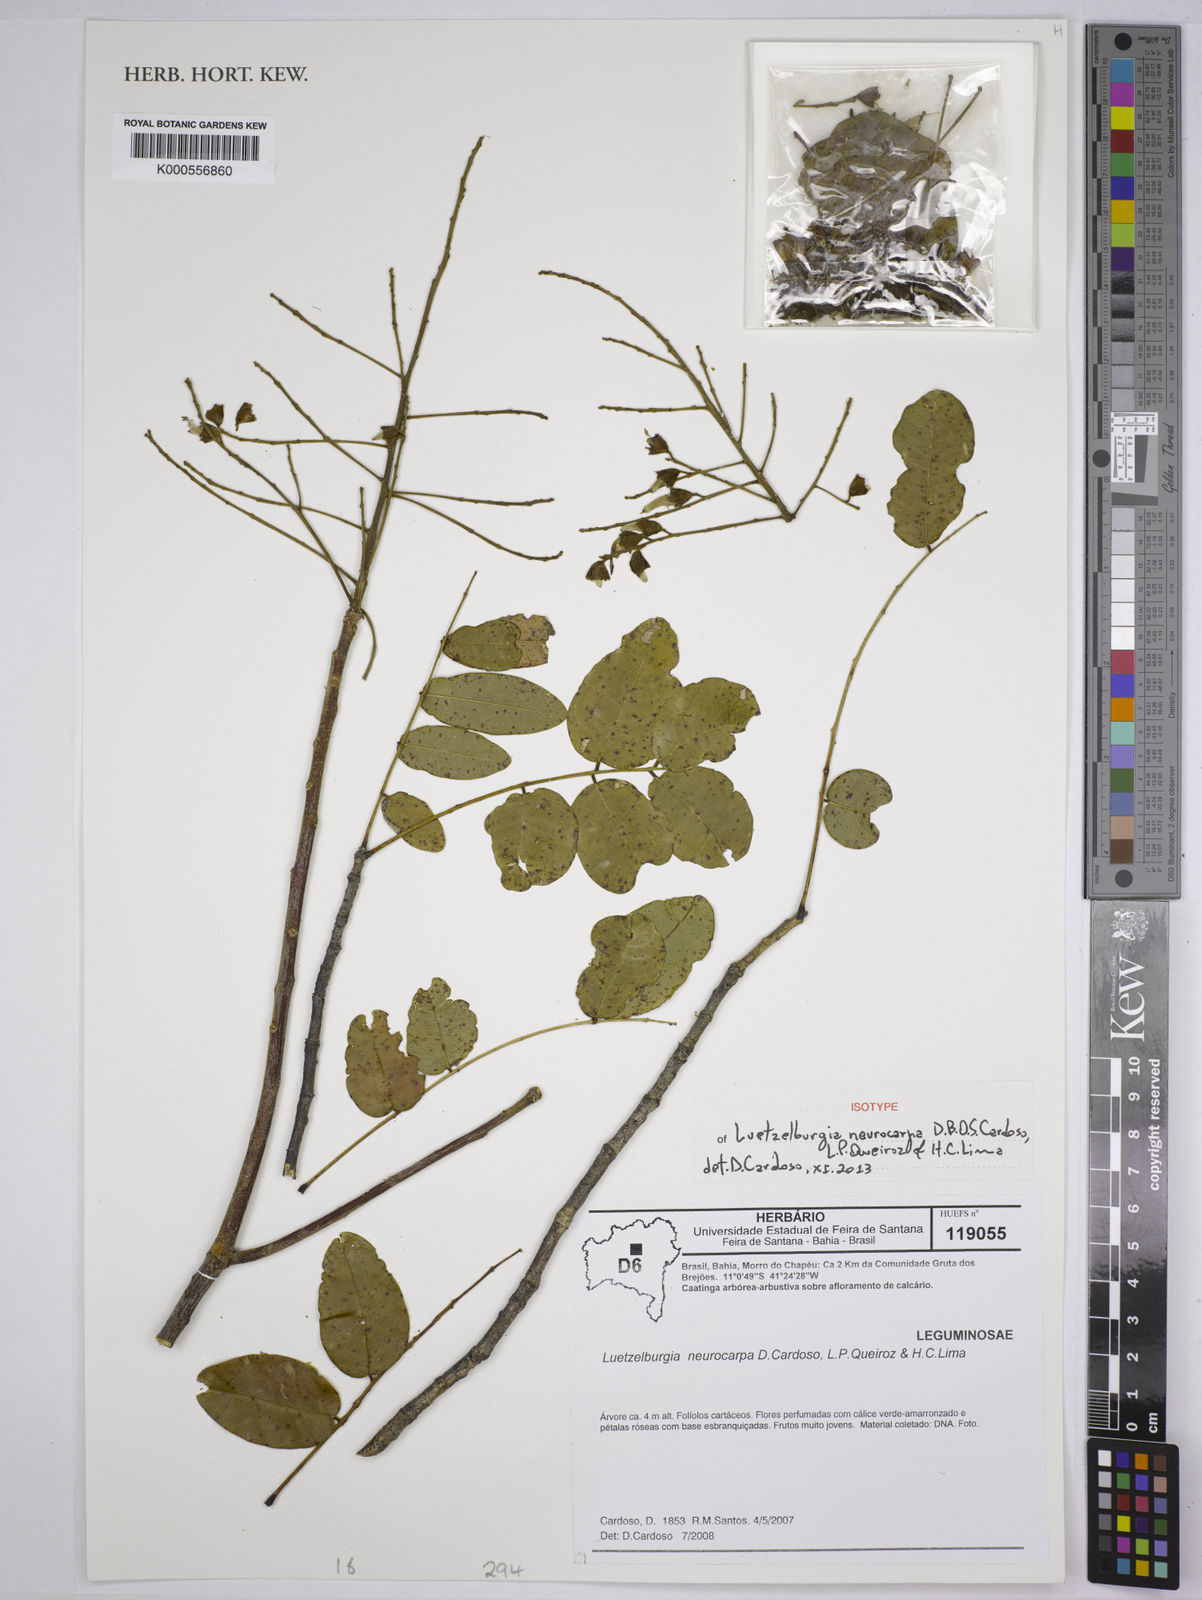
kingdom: Plantae
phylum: Tracheophyta
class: Magnoliopsida
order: Fabales
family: Fabaceae
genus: Luetzelburgia
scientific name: Luetzelburgia neurocarpa
